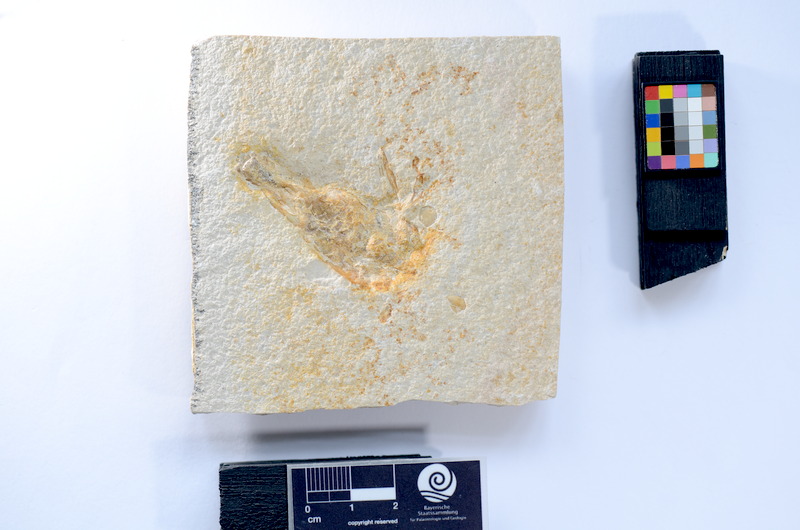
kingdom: Animalia
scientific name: Animalia
